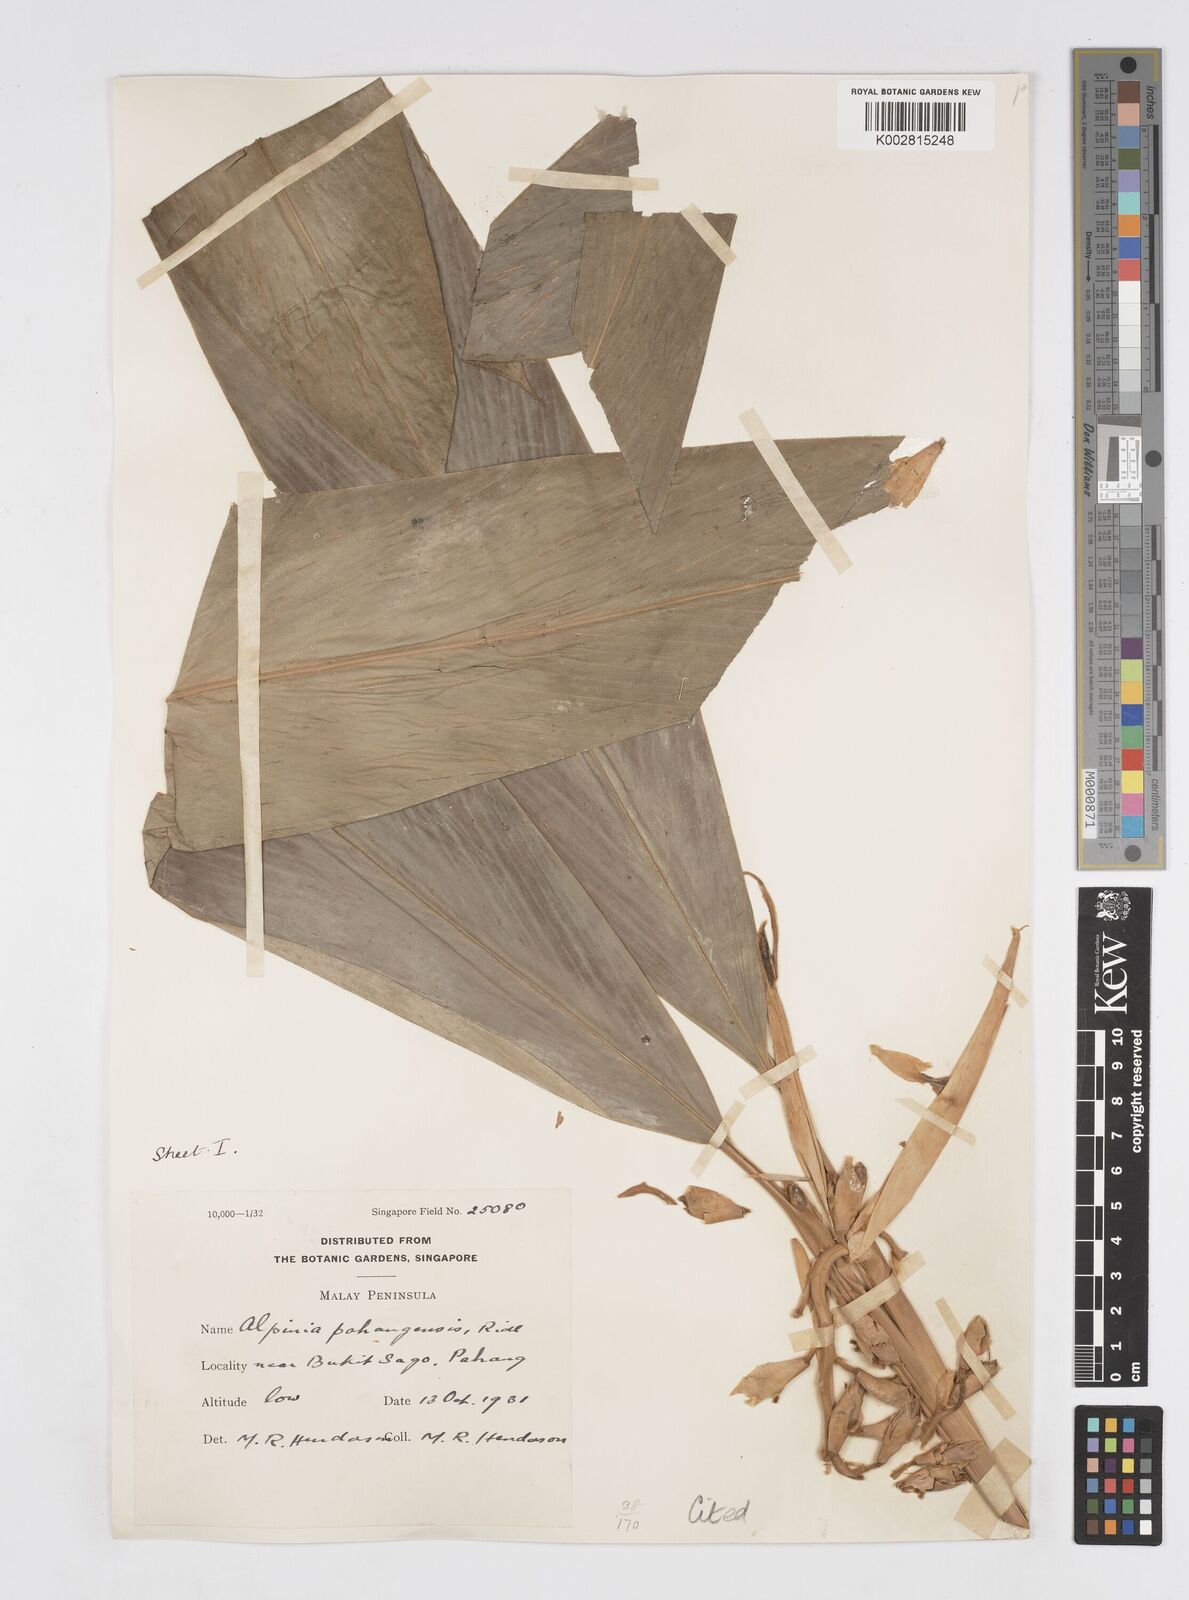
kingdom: Plantae
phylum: Tracheophyta
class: Liliopsida
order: Zingiberales
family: Zingiberaceae
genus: Alpinia
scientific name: Alpinia pahangensis
